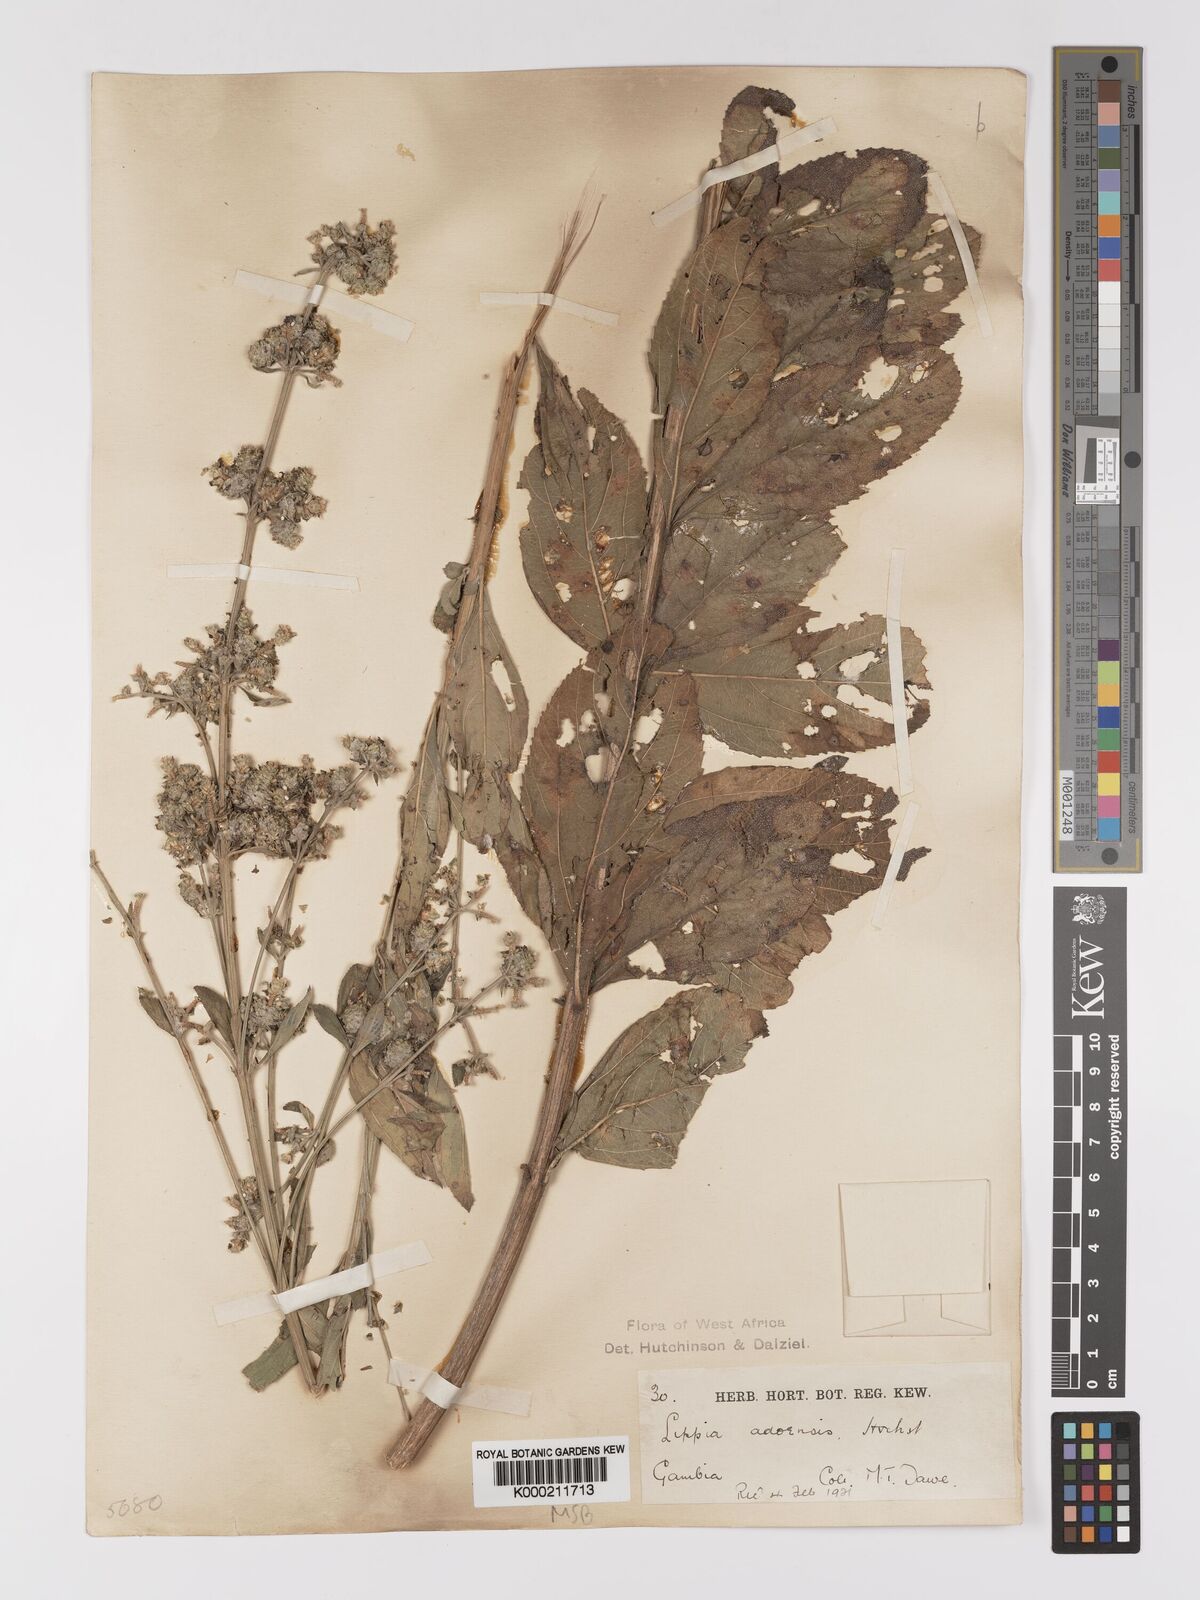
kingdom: Plantae
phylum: Tracheophyta
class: Magnoliopsida
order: Lamiales
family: Verbenaceae
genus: Lippia
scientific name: Lippia chevalieri
